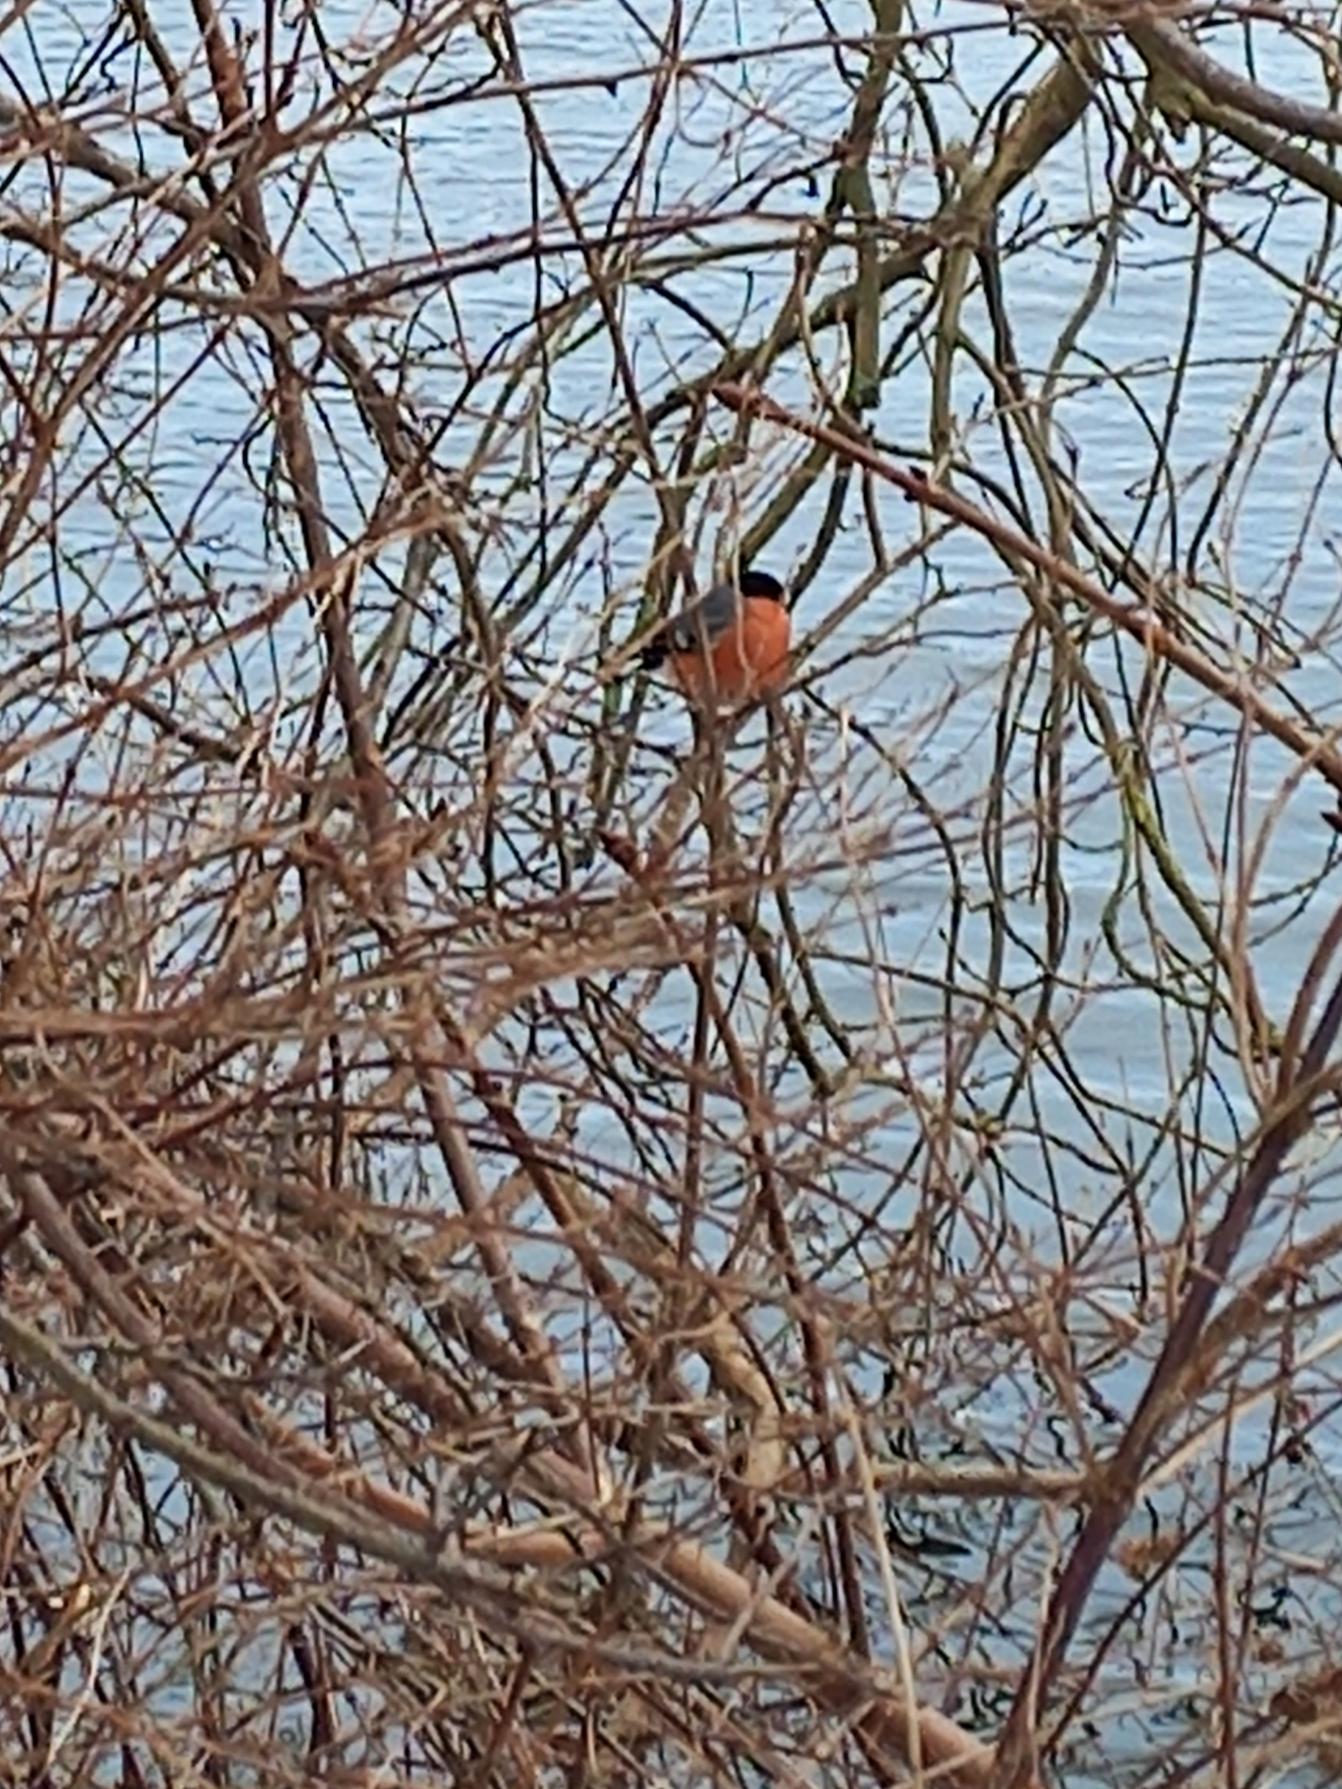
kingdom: Animalia
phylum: Chordata
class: Aves
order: Passeriformes
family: Fringillidae
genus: Pyrrhula
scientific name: Pyrrhula pyrrhula
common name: Dompap
